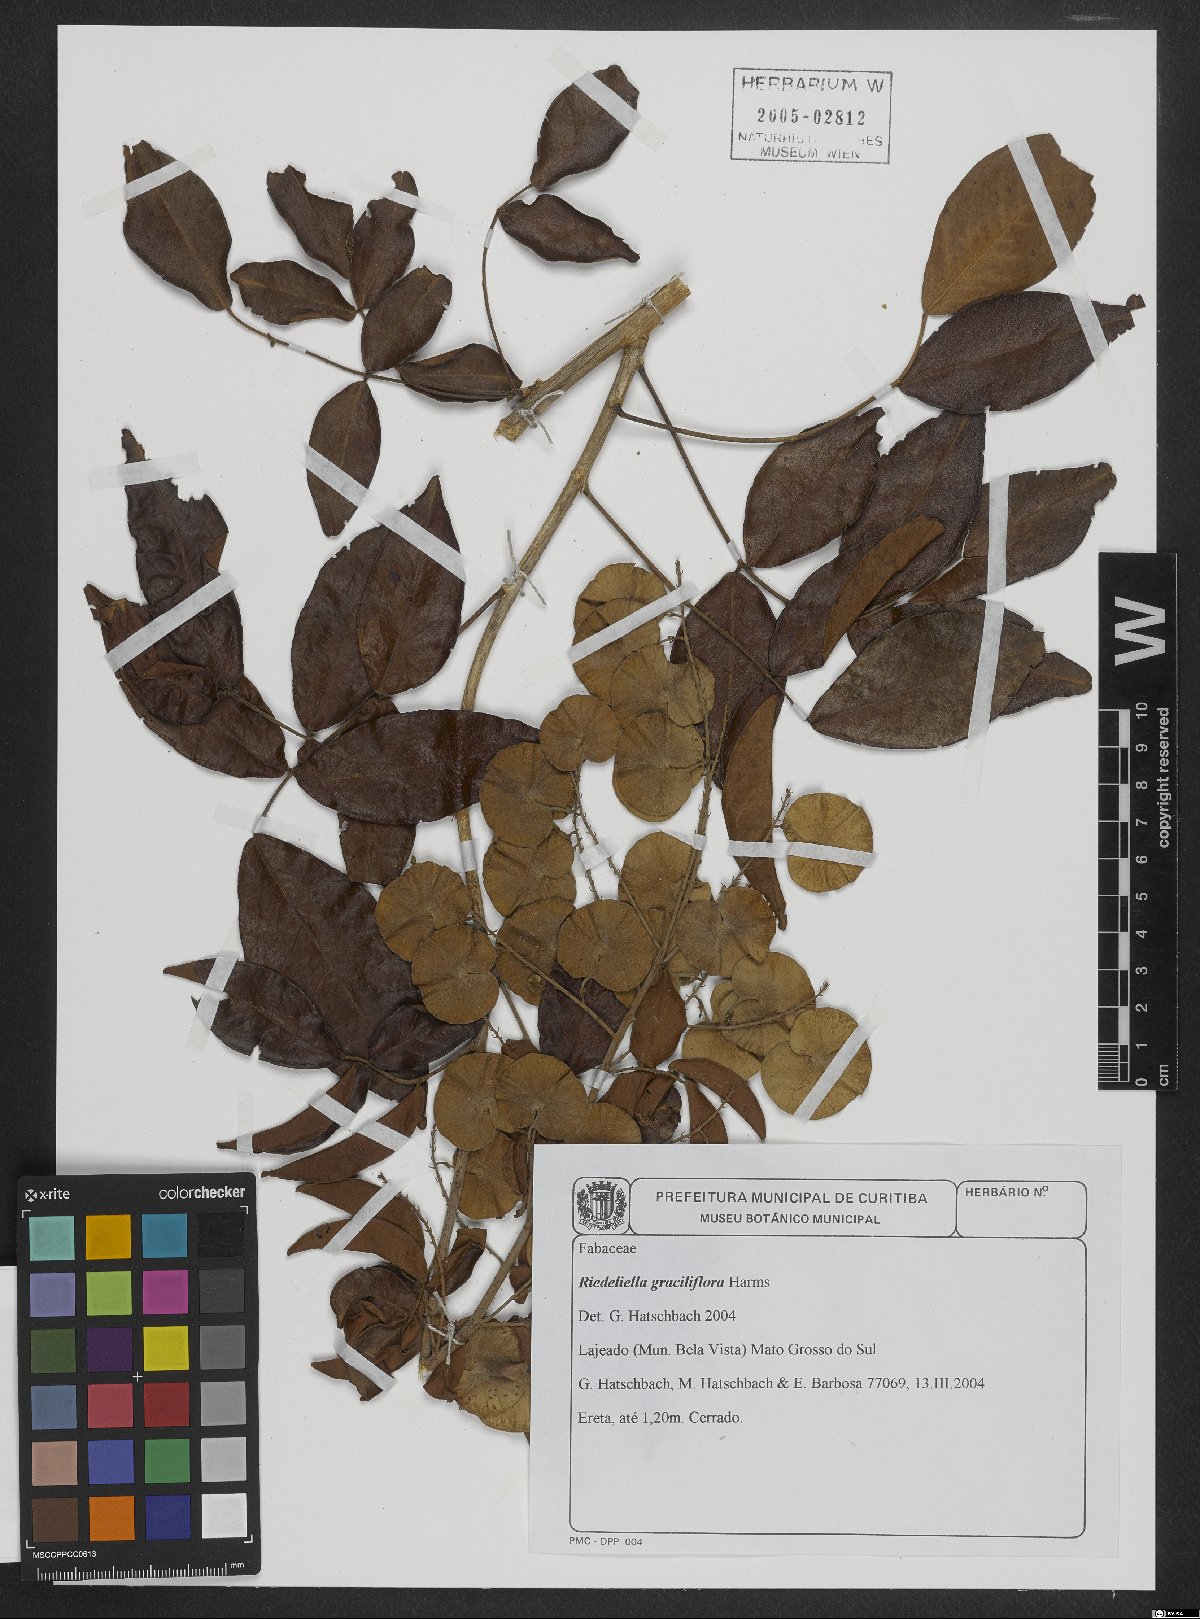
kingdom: Plantae
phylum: Tracheophyta
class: Magnoliopsida
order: Fabales
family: Fabaceae
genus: Riedeliella
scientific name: Riedeliella graciliflora
